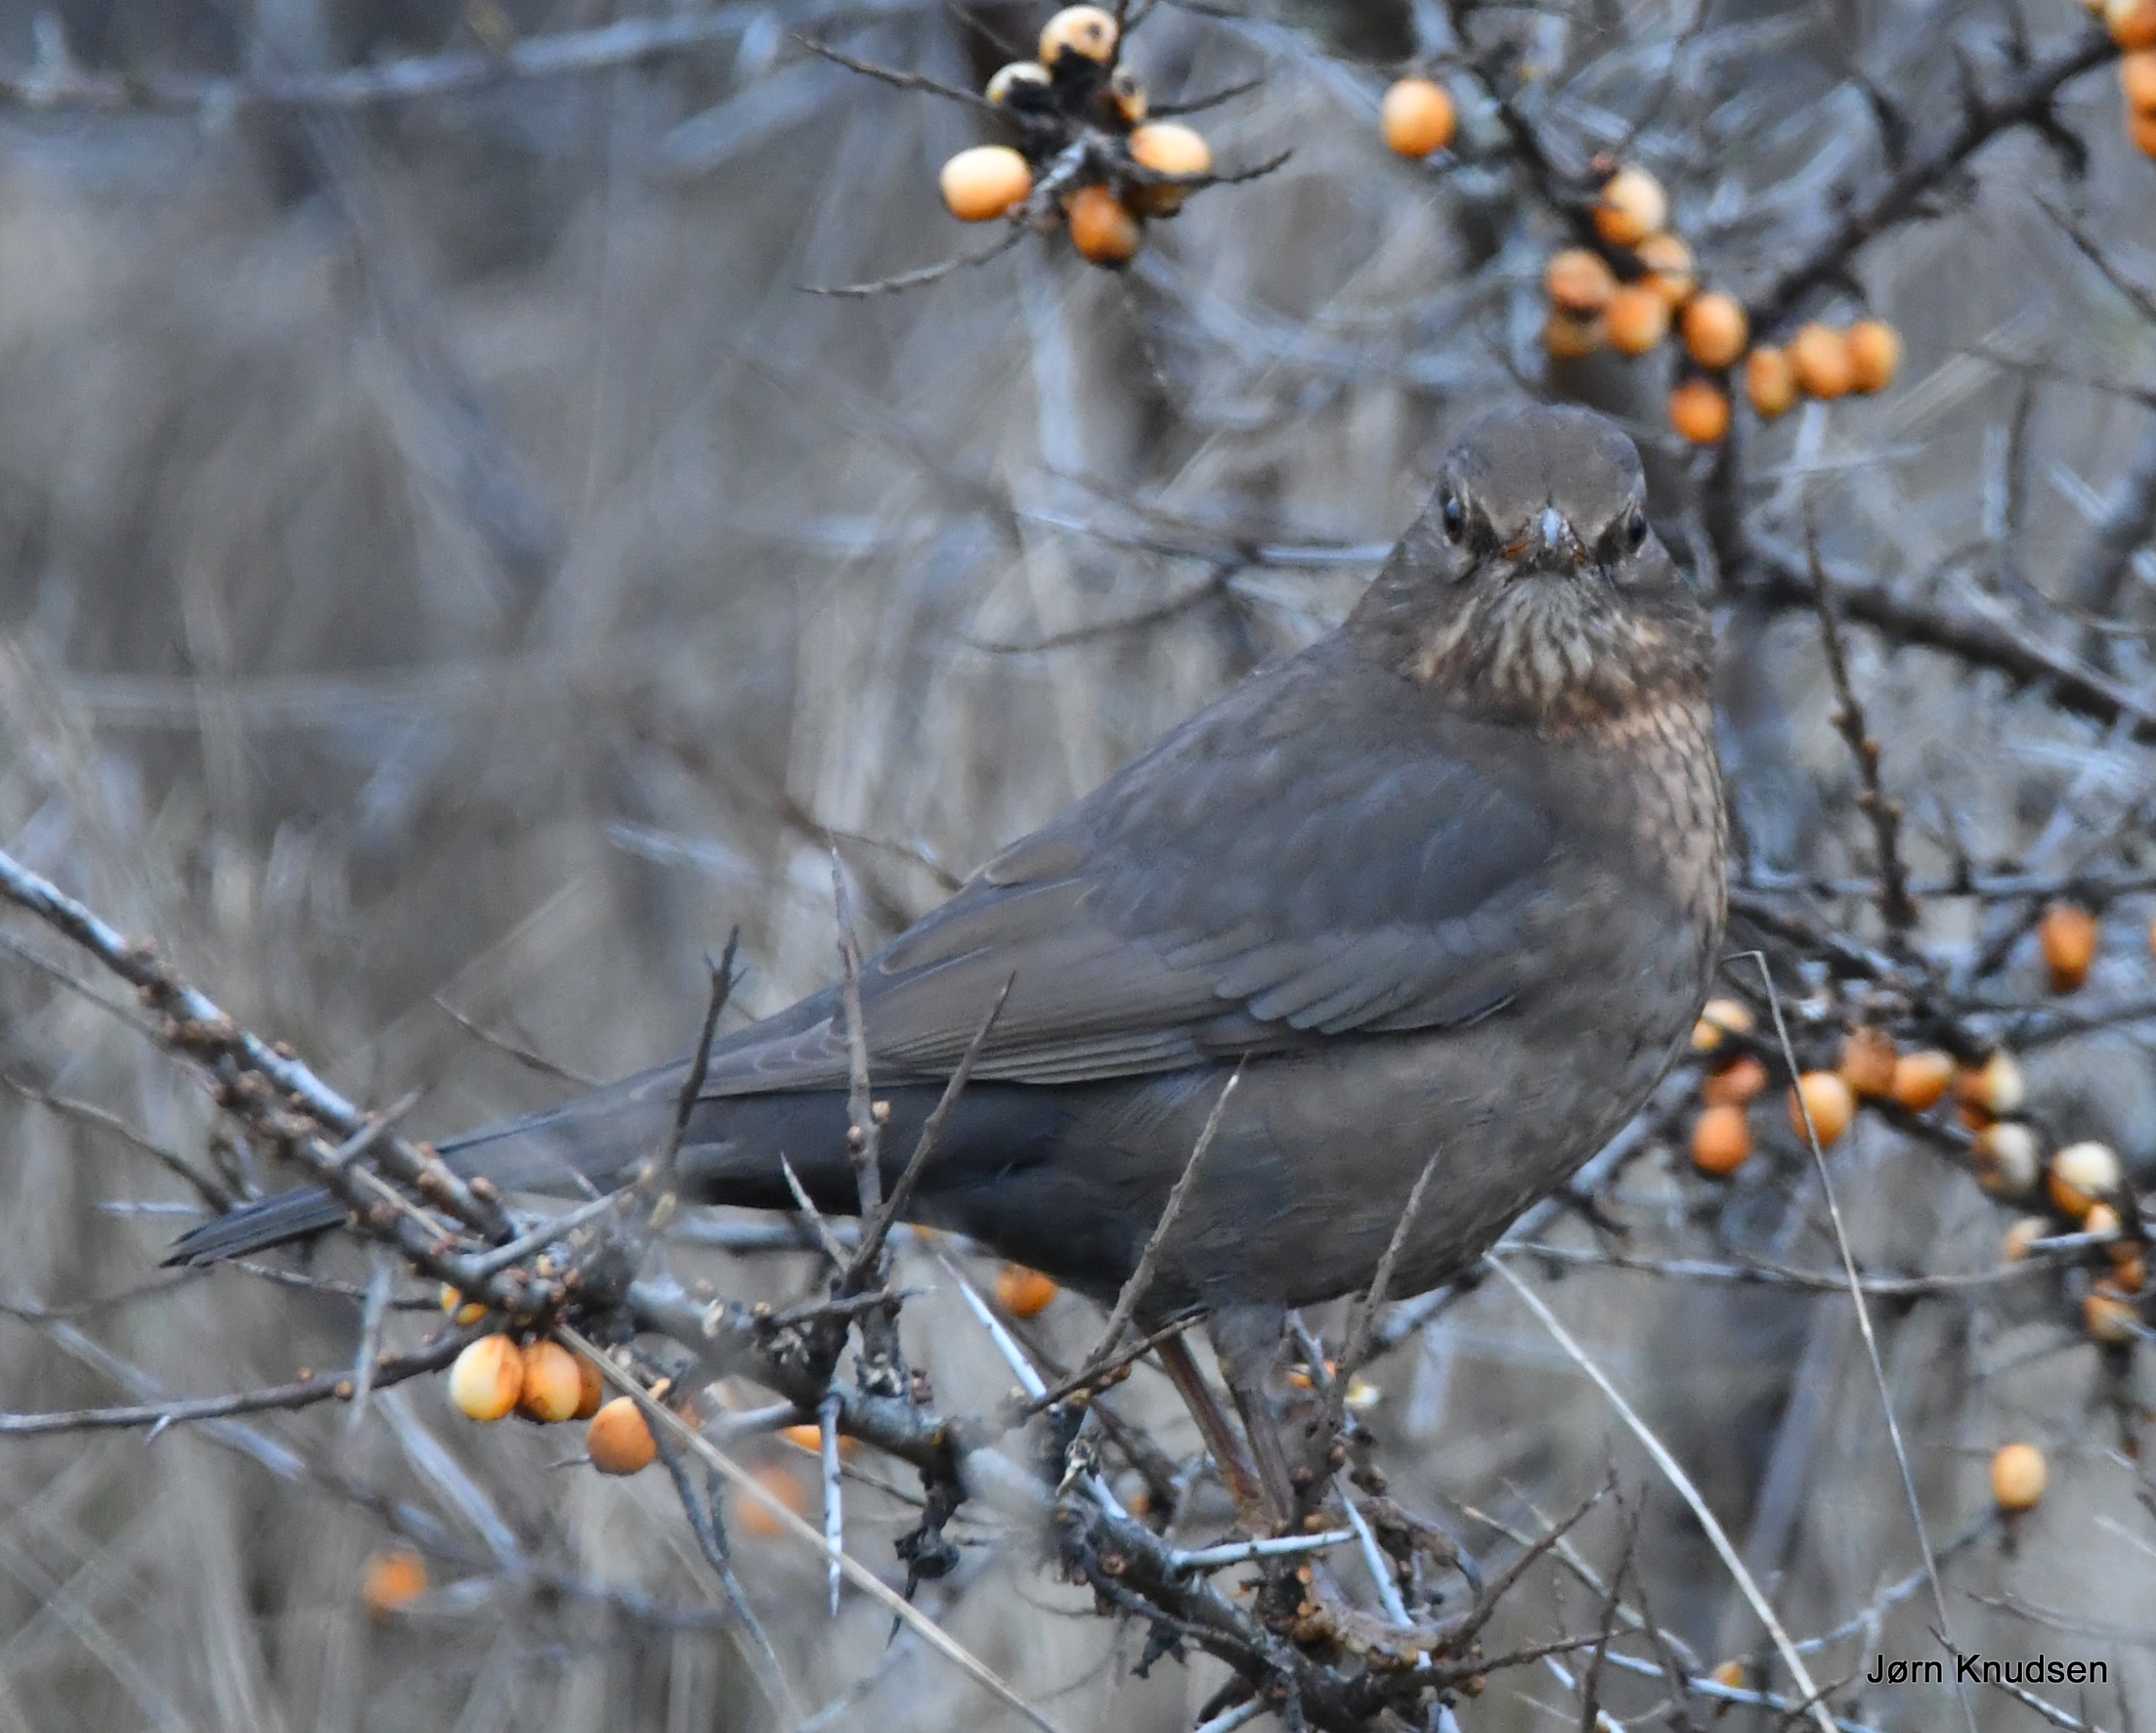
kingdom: Animalia
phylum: Chordata
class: Aves
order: Passeriformes
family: Turdidae
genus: Turdus
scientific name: Turdus merula
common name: Solsort
